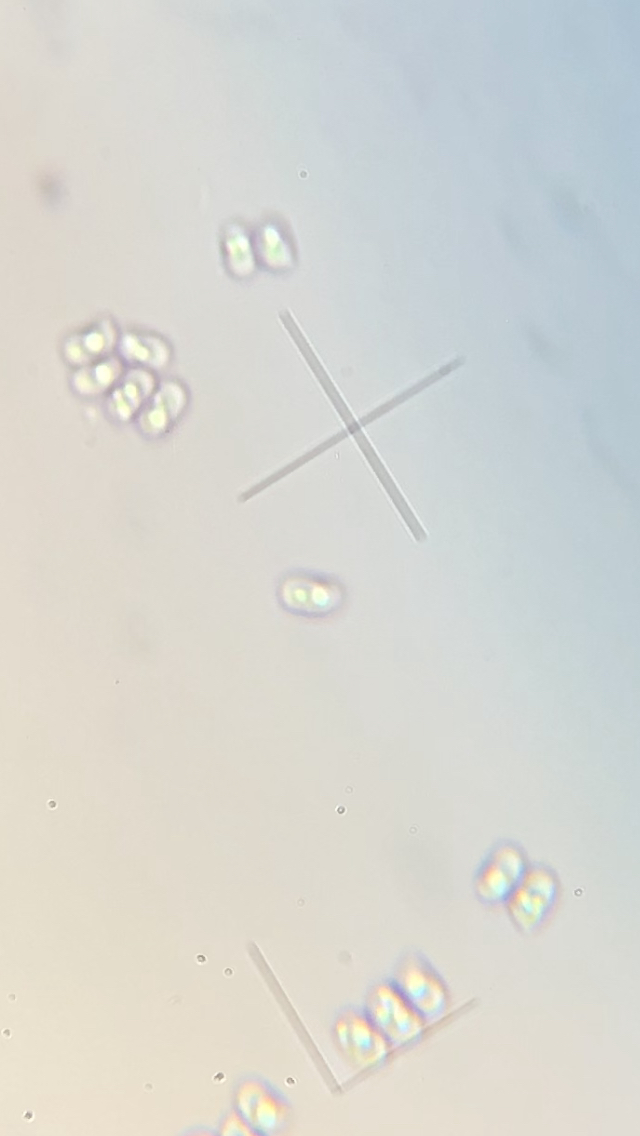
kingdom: Fungi
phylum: Basidiomycota
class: Agaricomycetes
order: Hymenochaetales
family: Schizoporaceae
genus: Xylodon
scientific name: Xylodon
